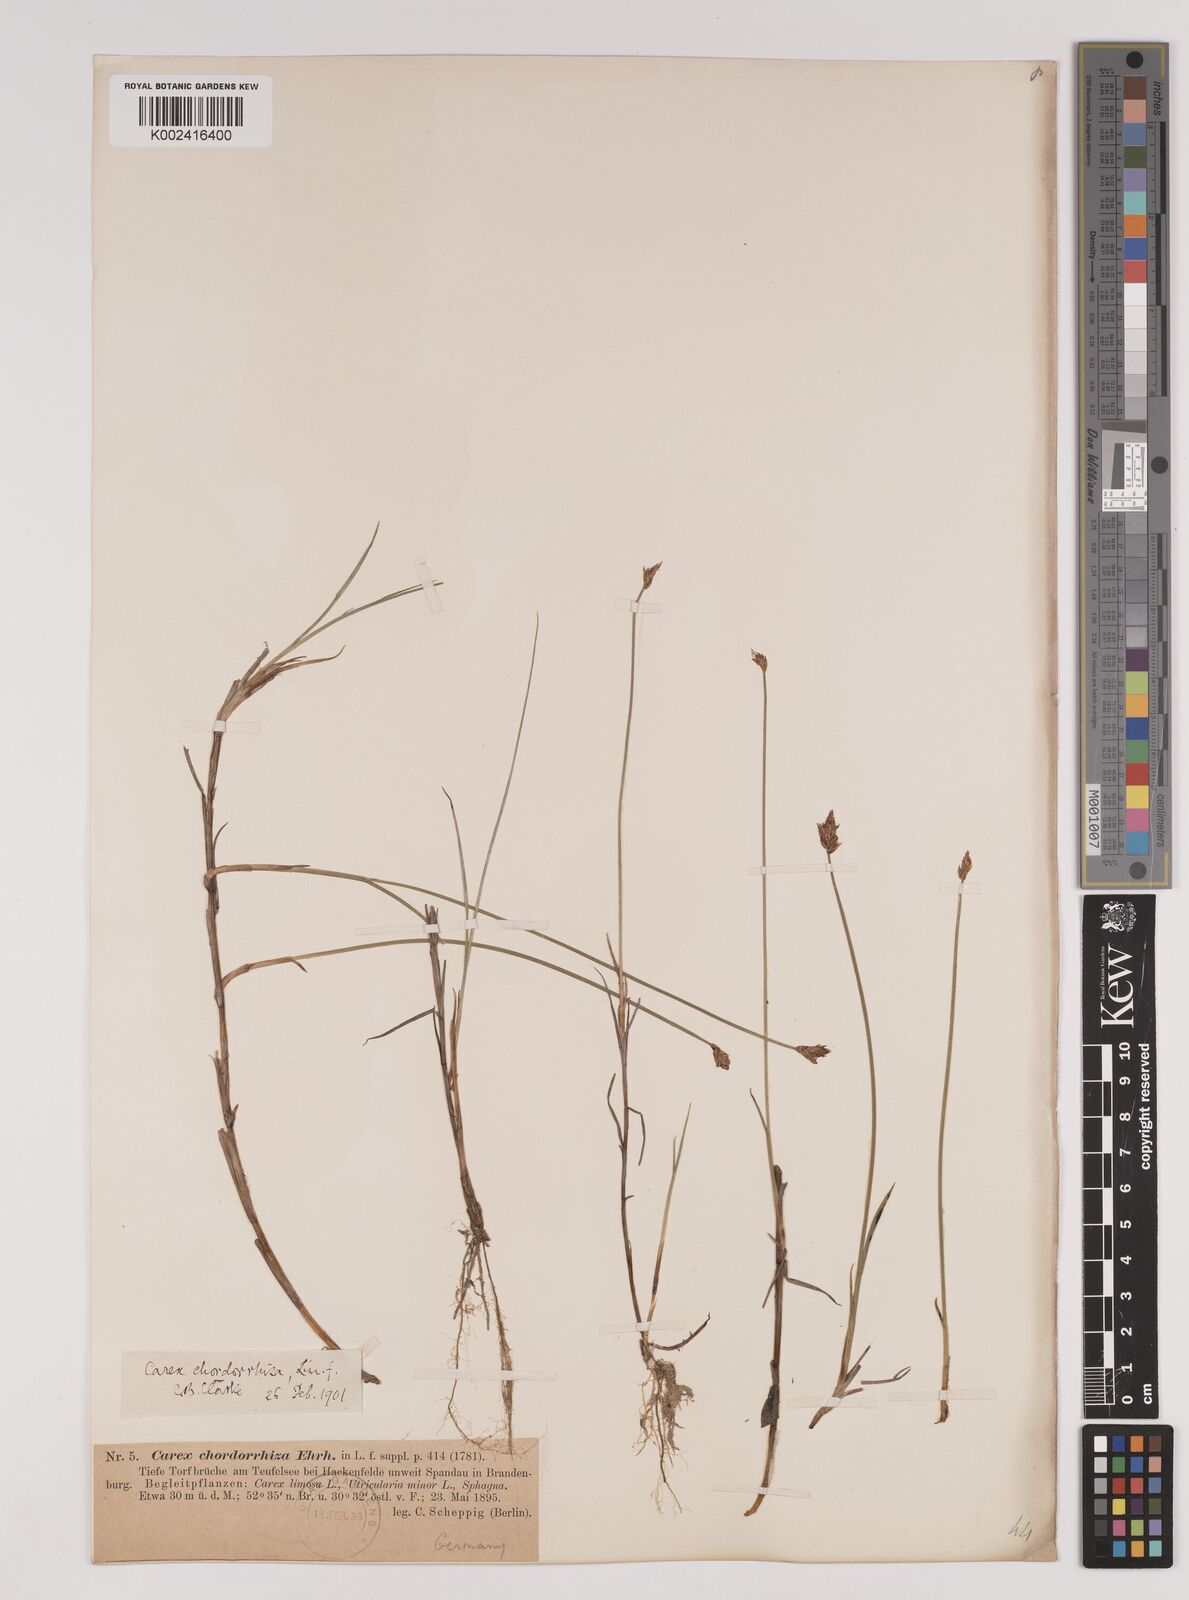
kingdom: Plantae
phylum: Tracheophyta
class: Liliopsida
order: Poales
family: Cyperaceae
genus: Carex
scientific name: Carex chordorrhiza
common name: String sedge
